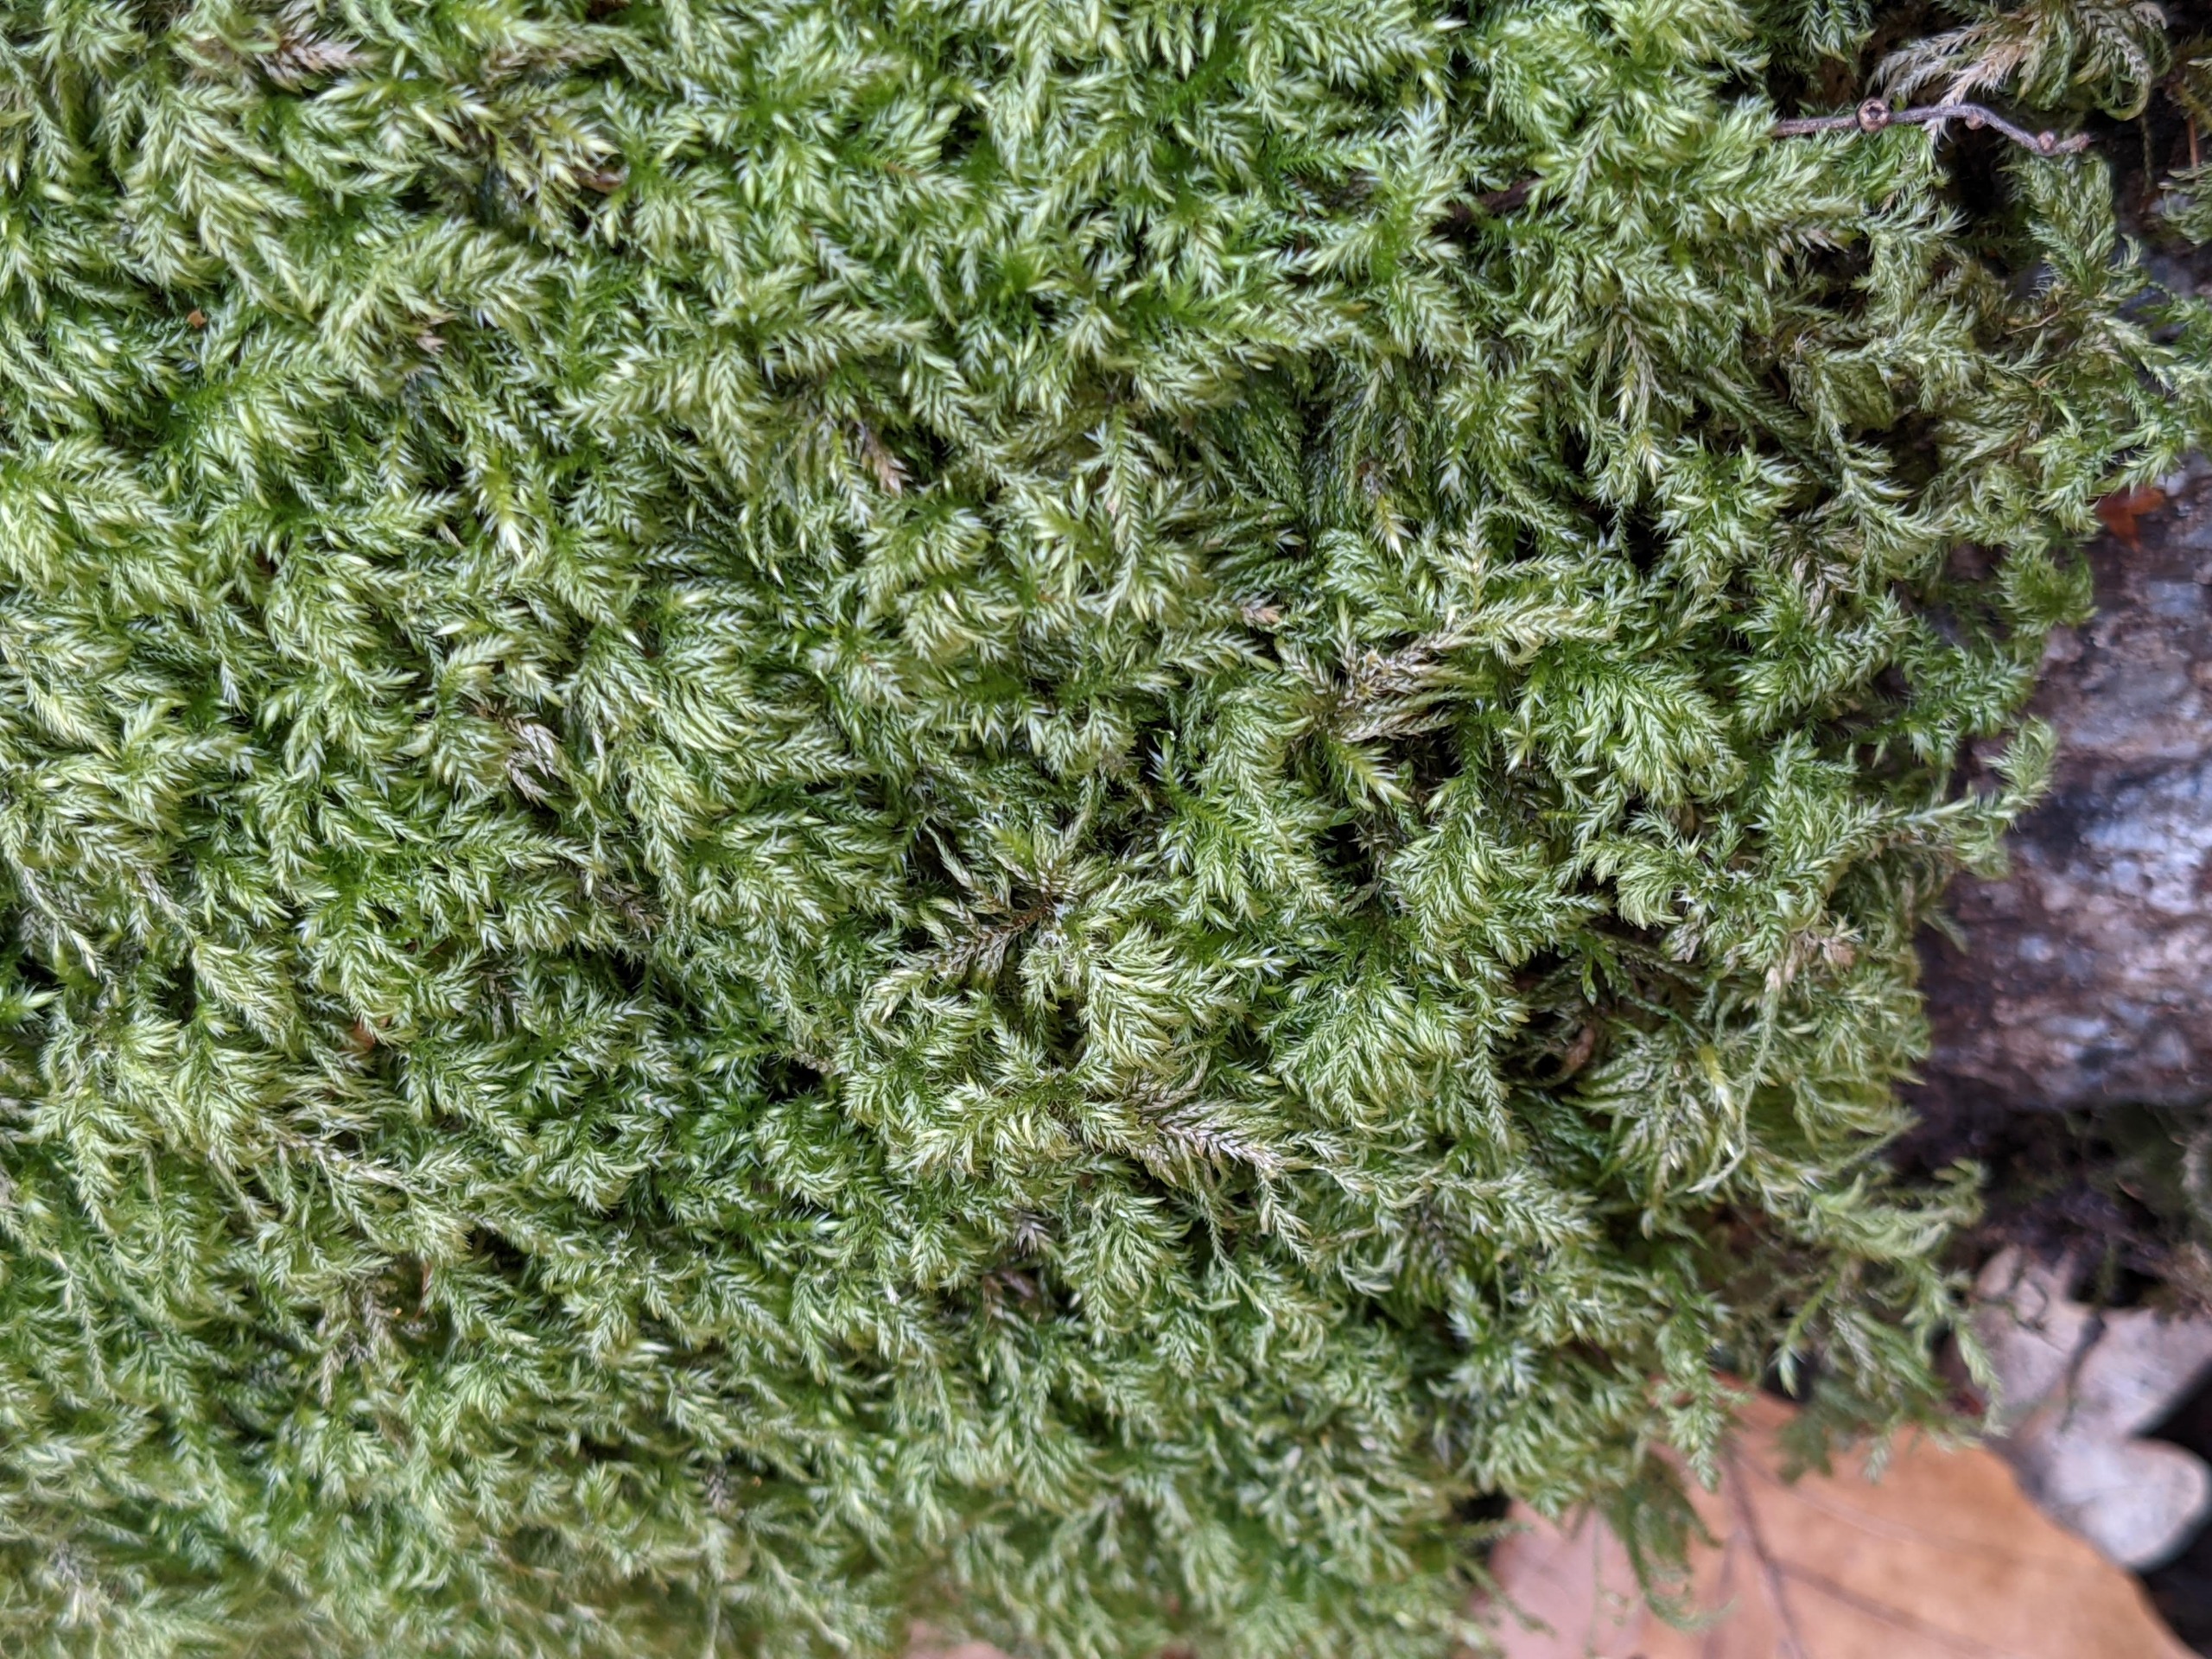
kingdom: Plantae
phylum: Bryophyta
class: Bryopsida
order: Hypnales
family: Lembophyllaceae
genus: Pseudisothecium
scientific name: Pseudisothecium myosuroides
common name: Slank stammemos
